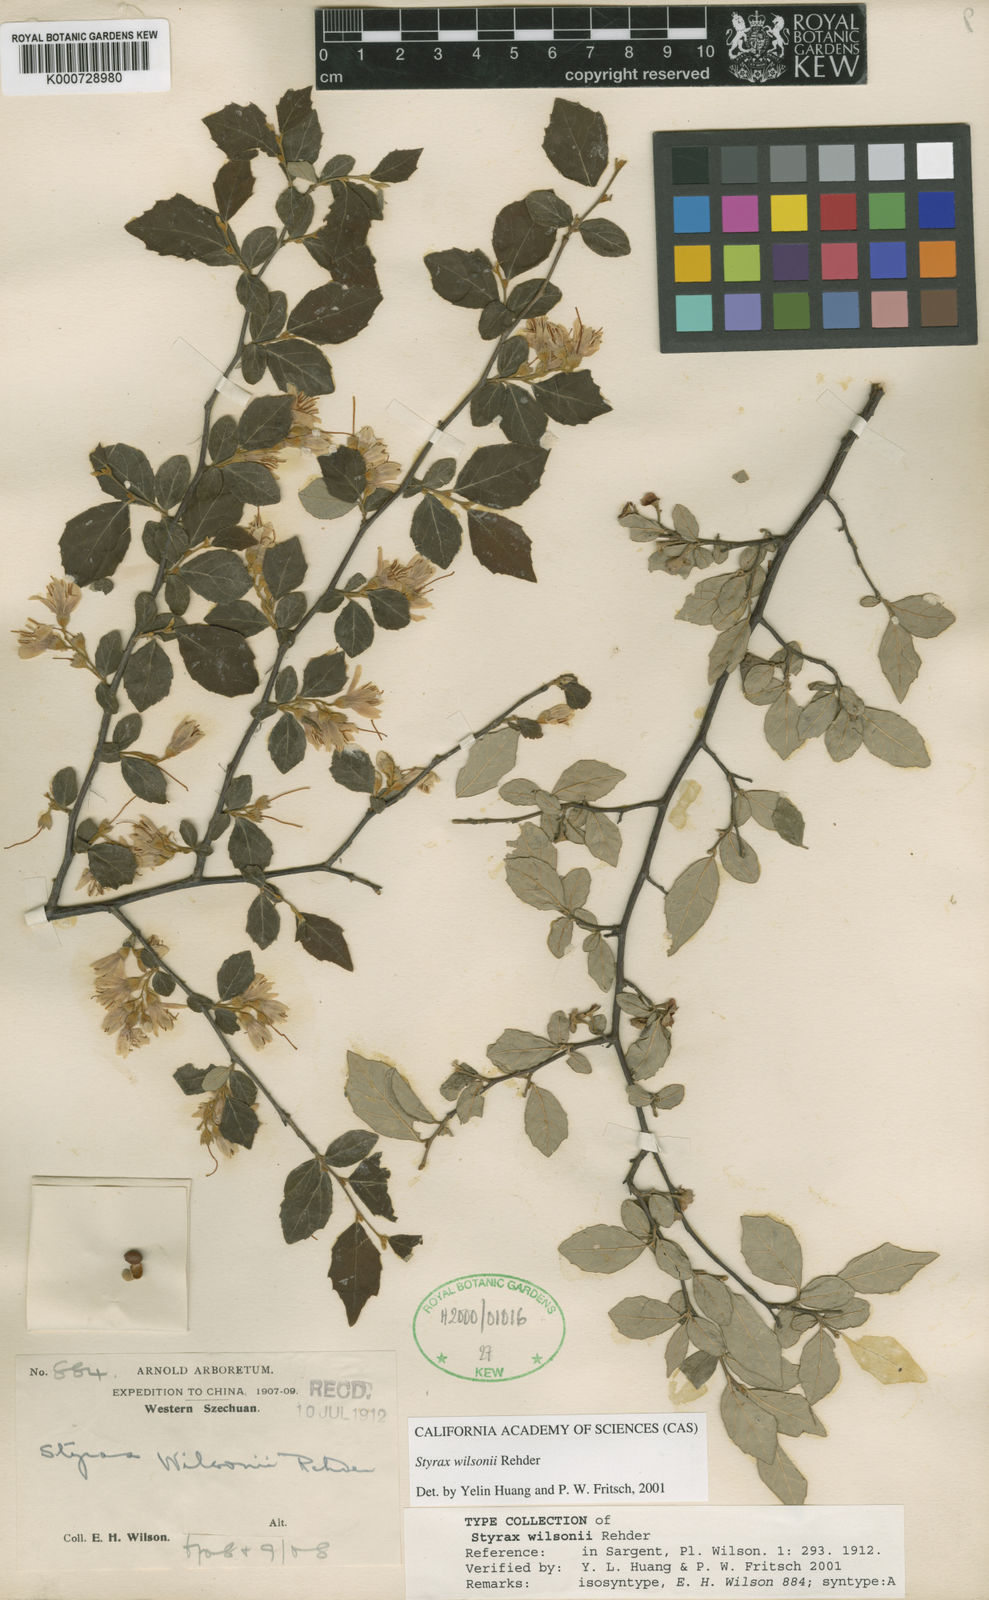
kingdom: Plantae
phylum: Tracheophyta
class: Magnoliopsida
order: Ericales
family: Styracaceae
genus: Styrax
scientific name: Styrax wilsonii
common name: Wilson's snowbell
